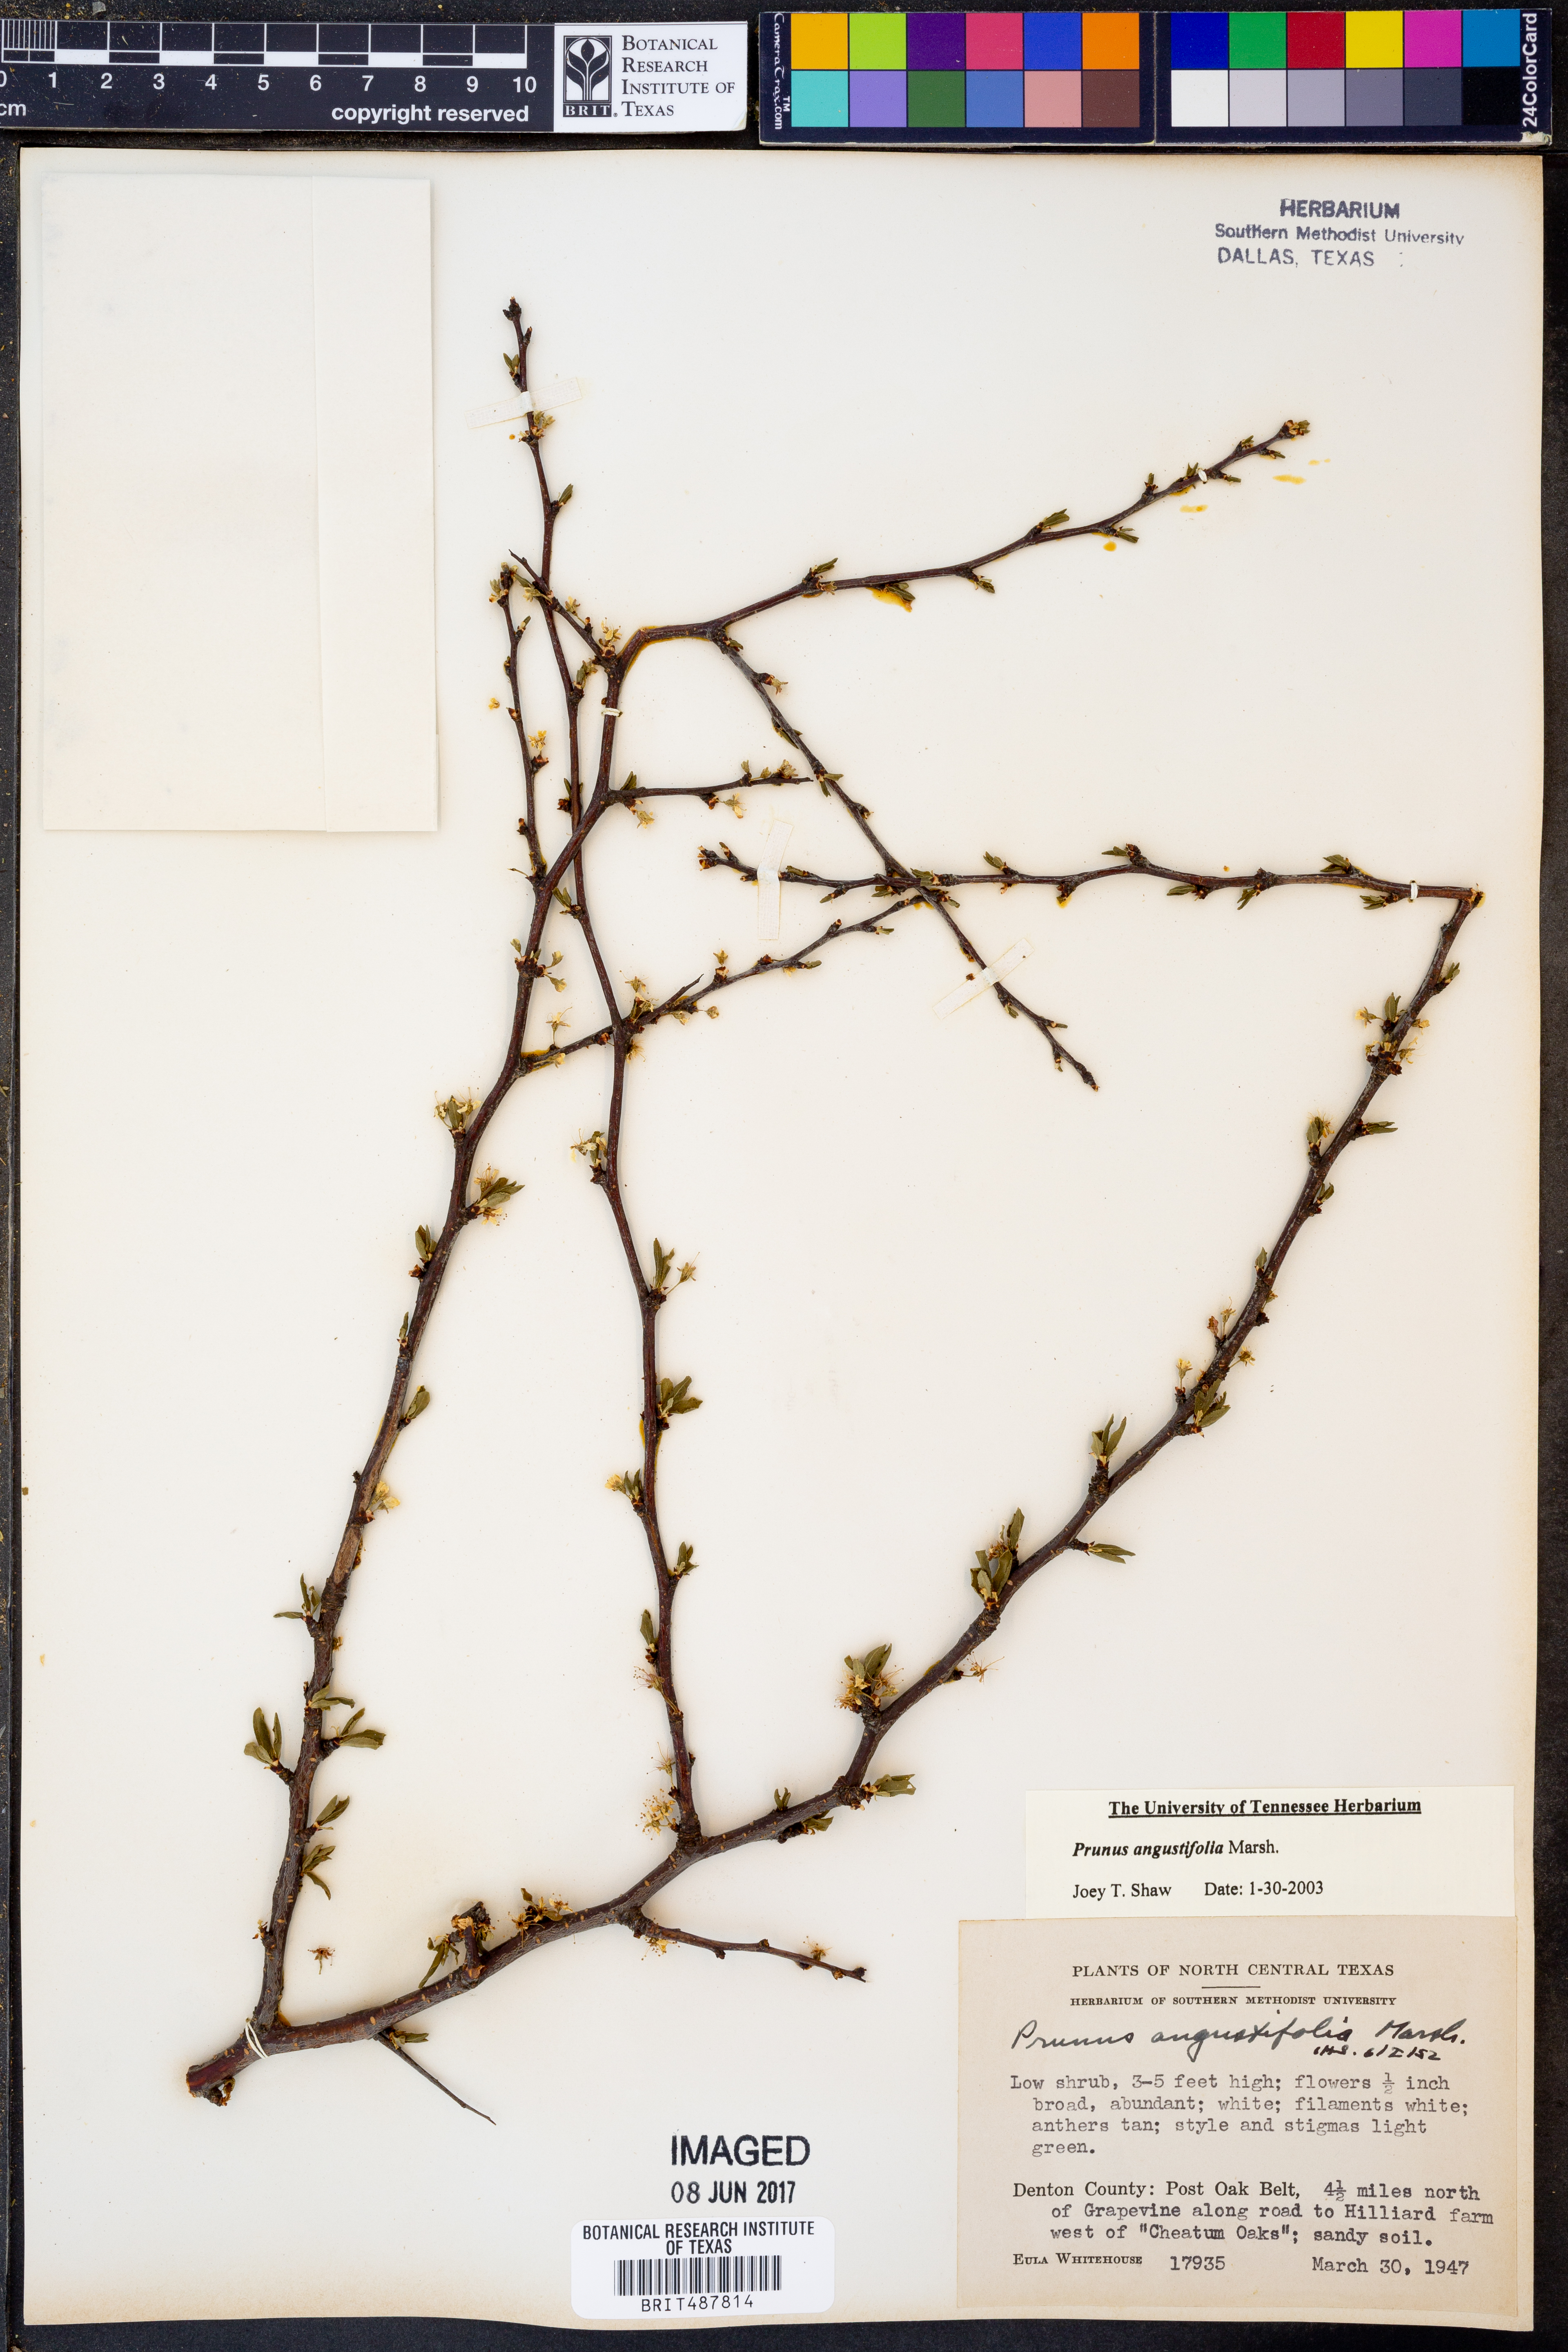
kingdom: Plantae
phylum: Tracheophyta
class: Magnoliopsida
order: Rosales
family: Rosaceae
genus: Prunus
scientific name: Prunus angustifolia
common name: Cherokee plum
